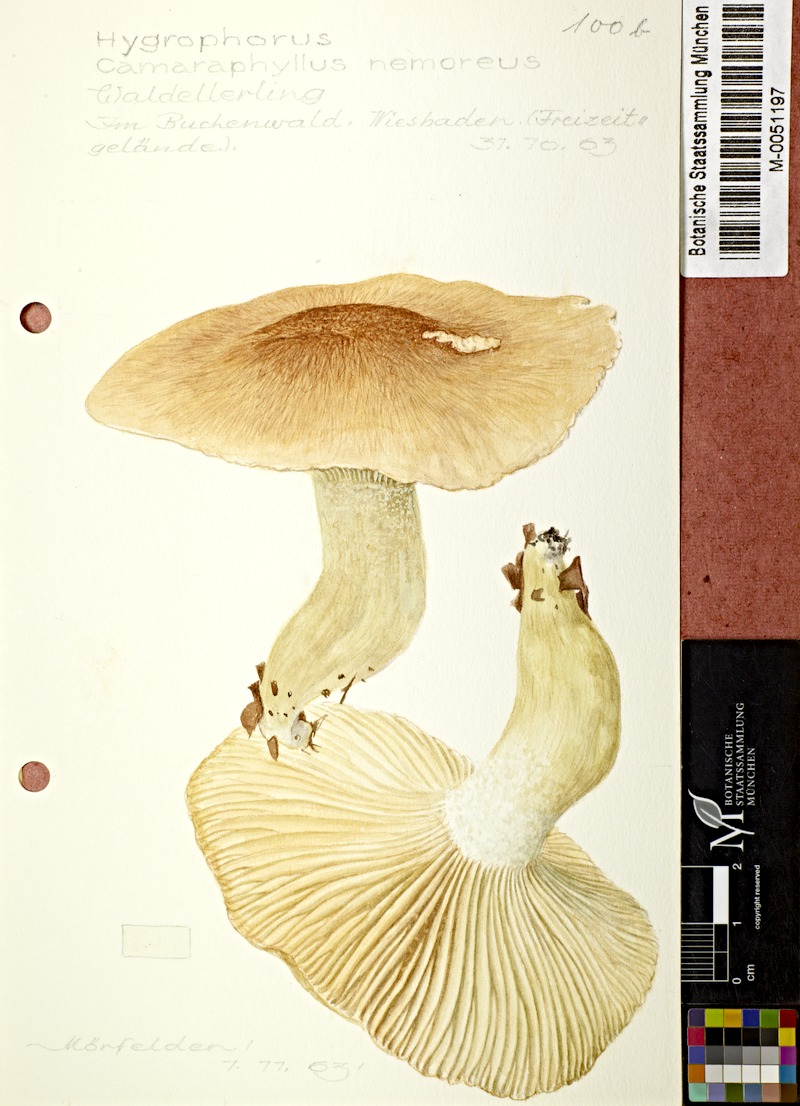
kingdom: Fungi
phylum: Basidiomycota
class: Agaricomycetes
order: Agaricales
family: Hygrophoraceae
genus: Hygrophorus
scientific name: Hygrophorus nemoreus
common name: Oak woodwax
